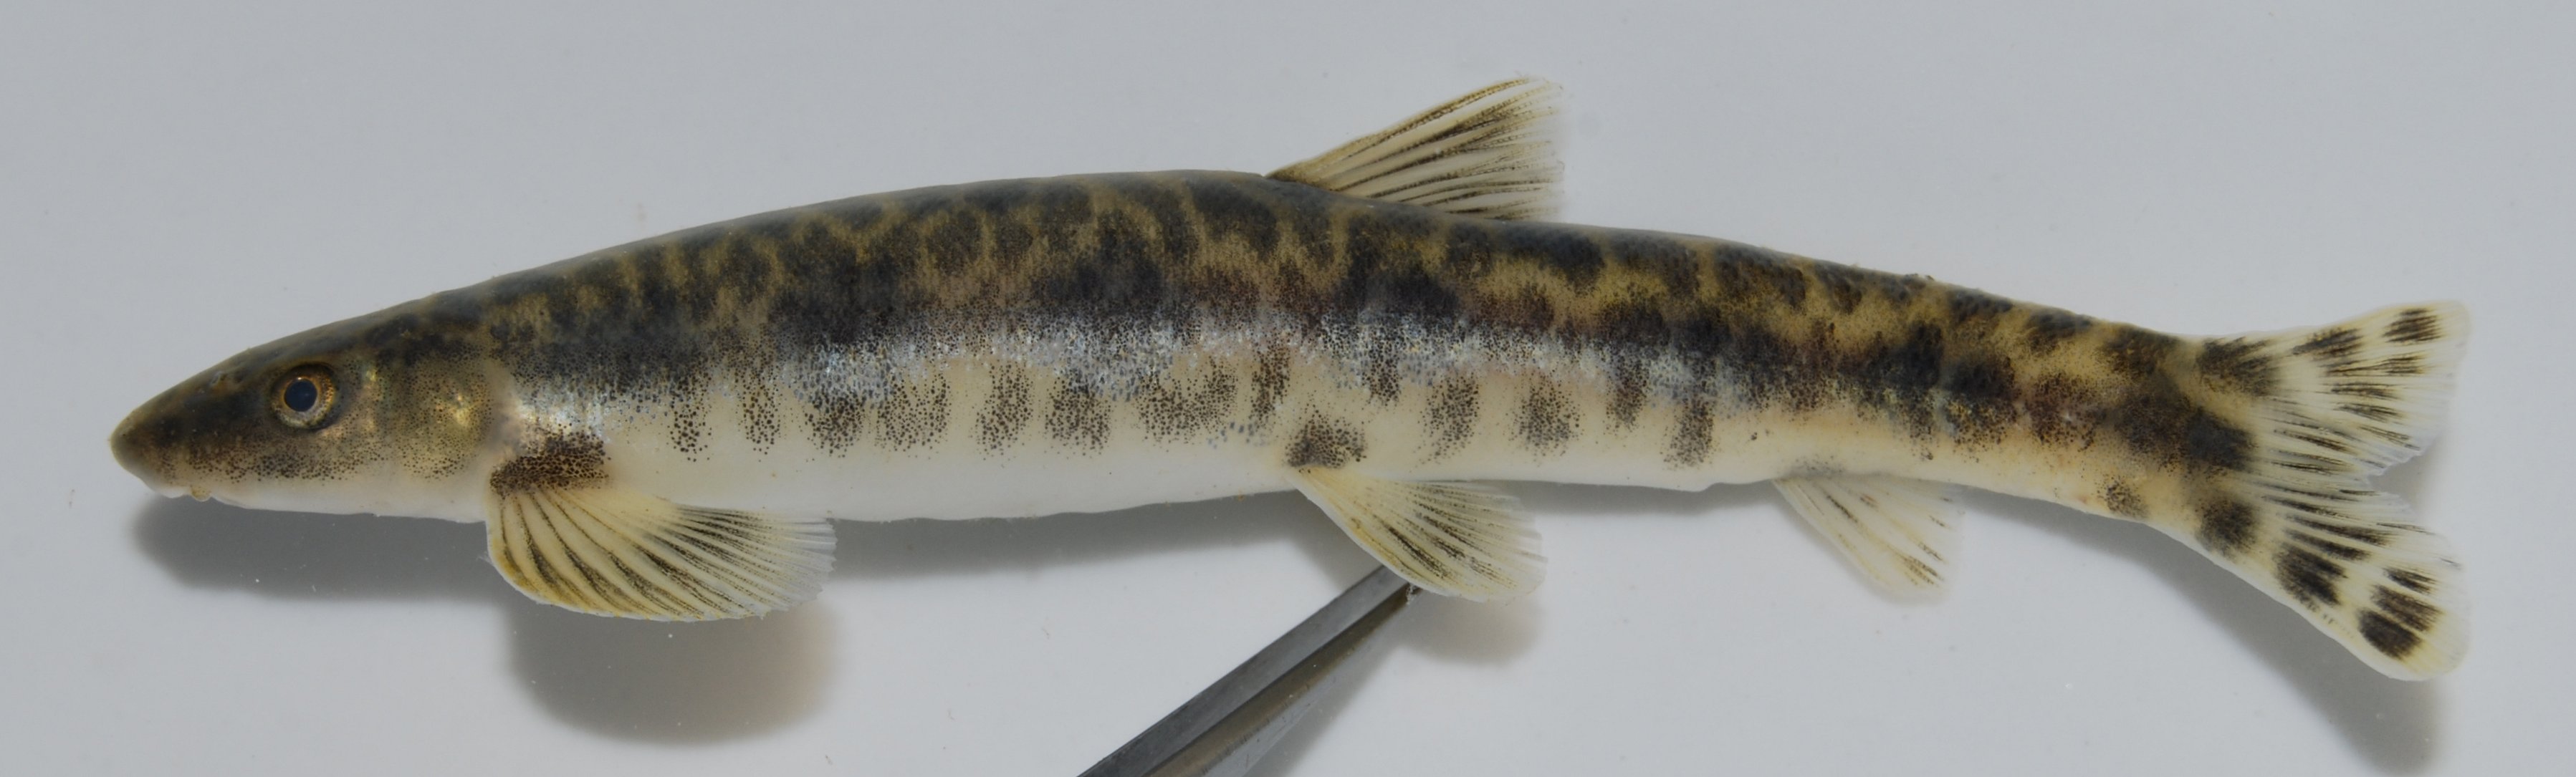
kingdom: Animalia
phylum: Chordata
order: Gonorynchiformes
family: Kneriidae
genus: Parakneria
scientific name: Parakneria fortuita
